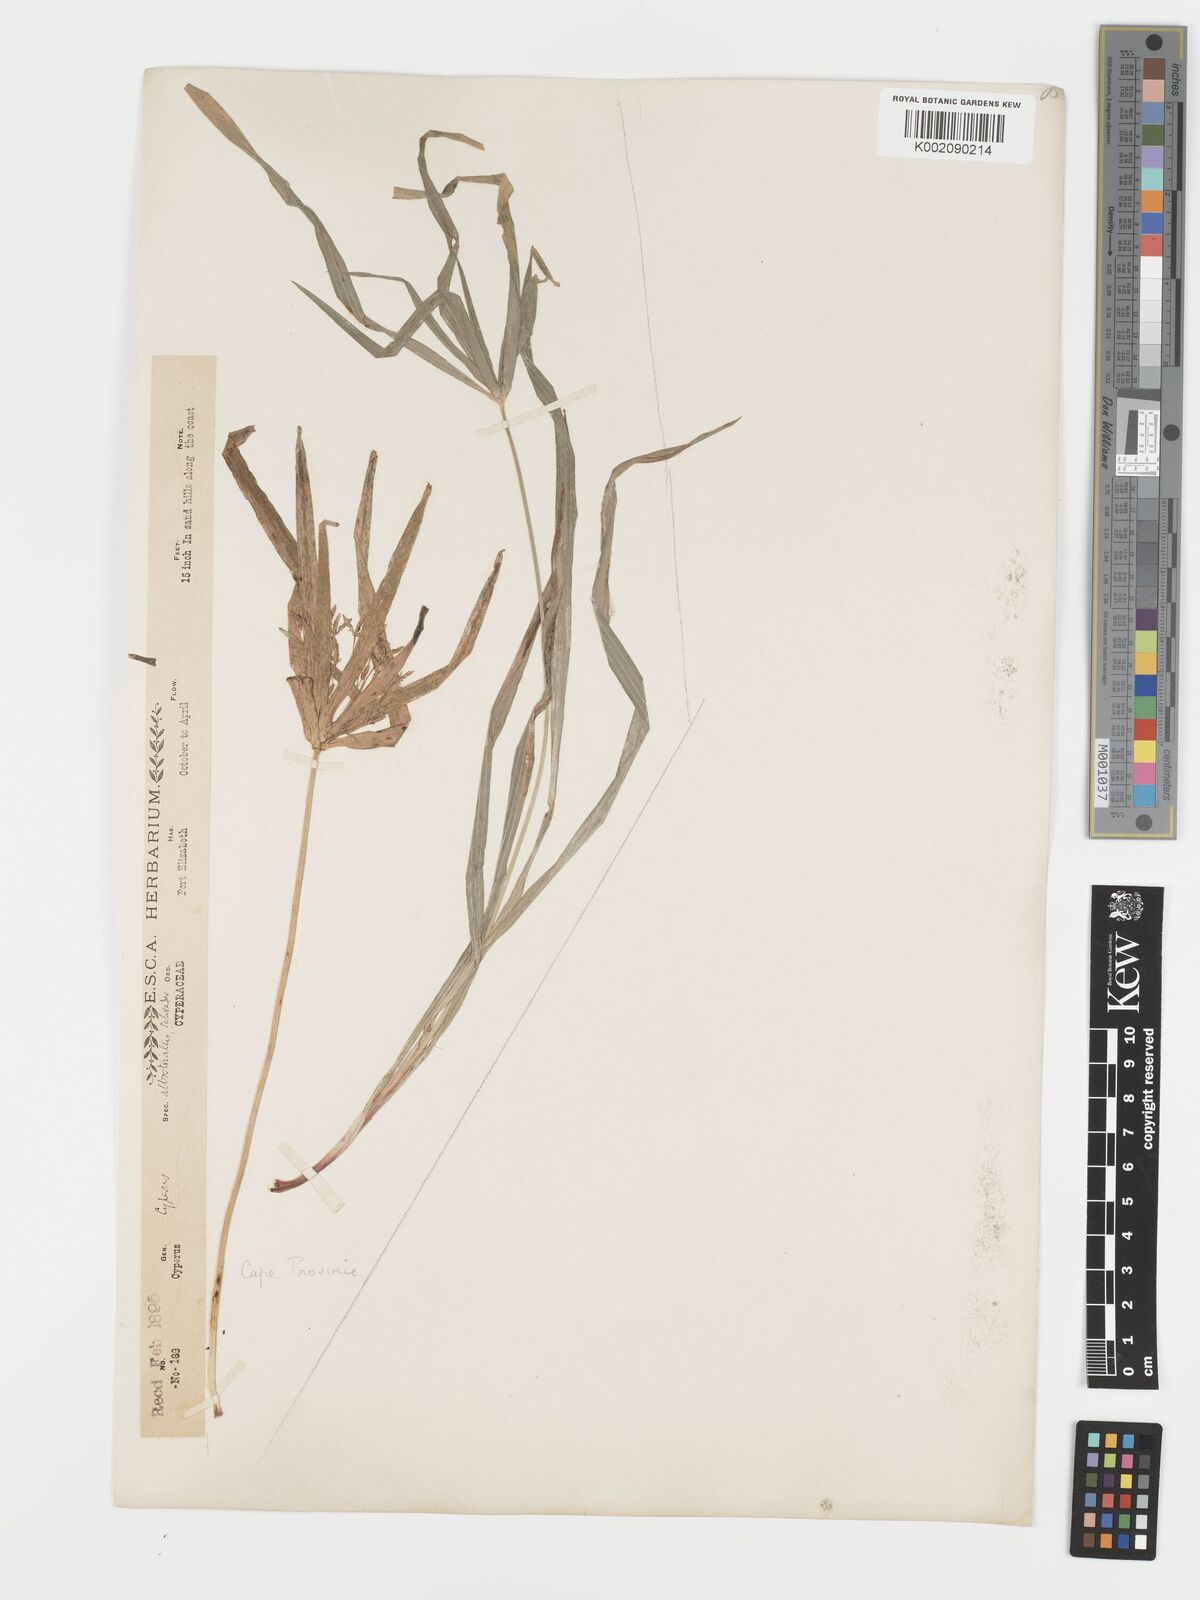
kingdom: Plantae
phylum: Tracheophyta
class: Liliopsida
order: Poales
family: Cyperaceae
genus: Cyperus
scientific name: Cyperus albostriatus
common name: Dwarf umbrella-grass
